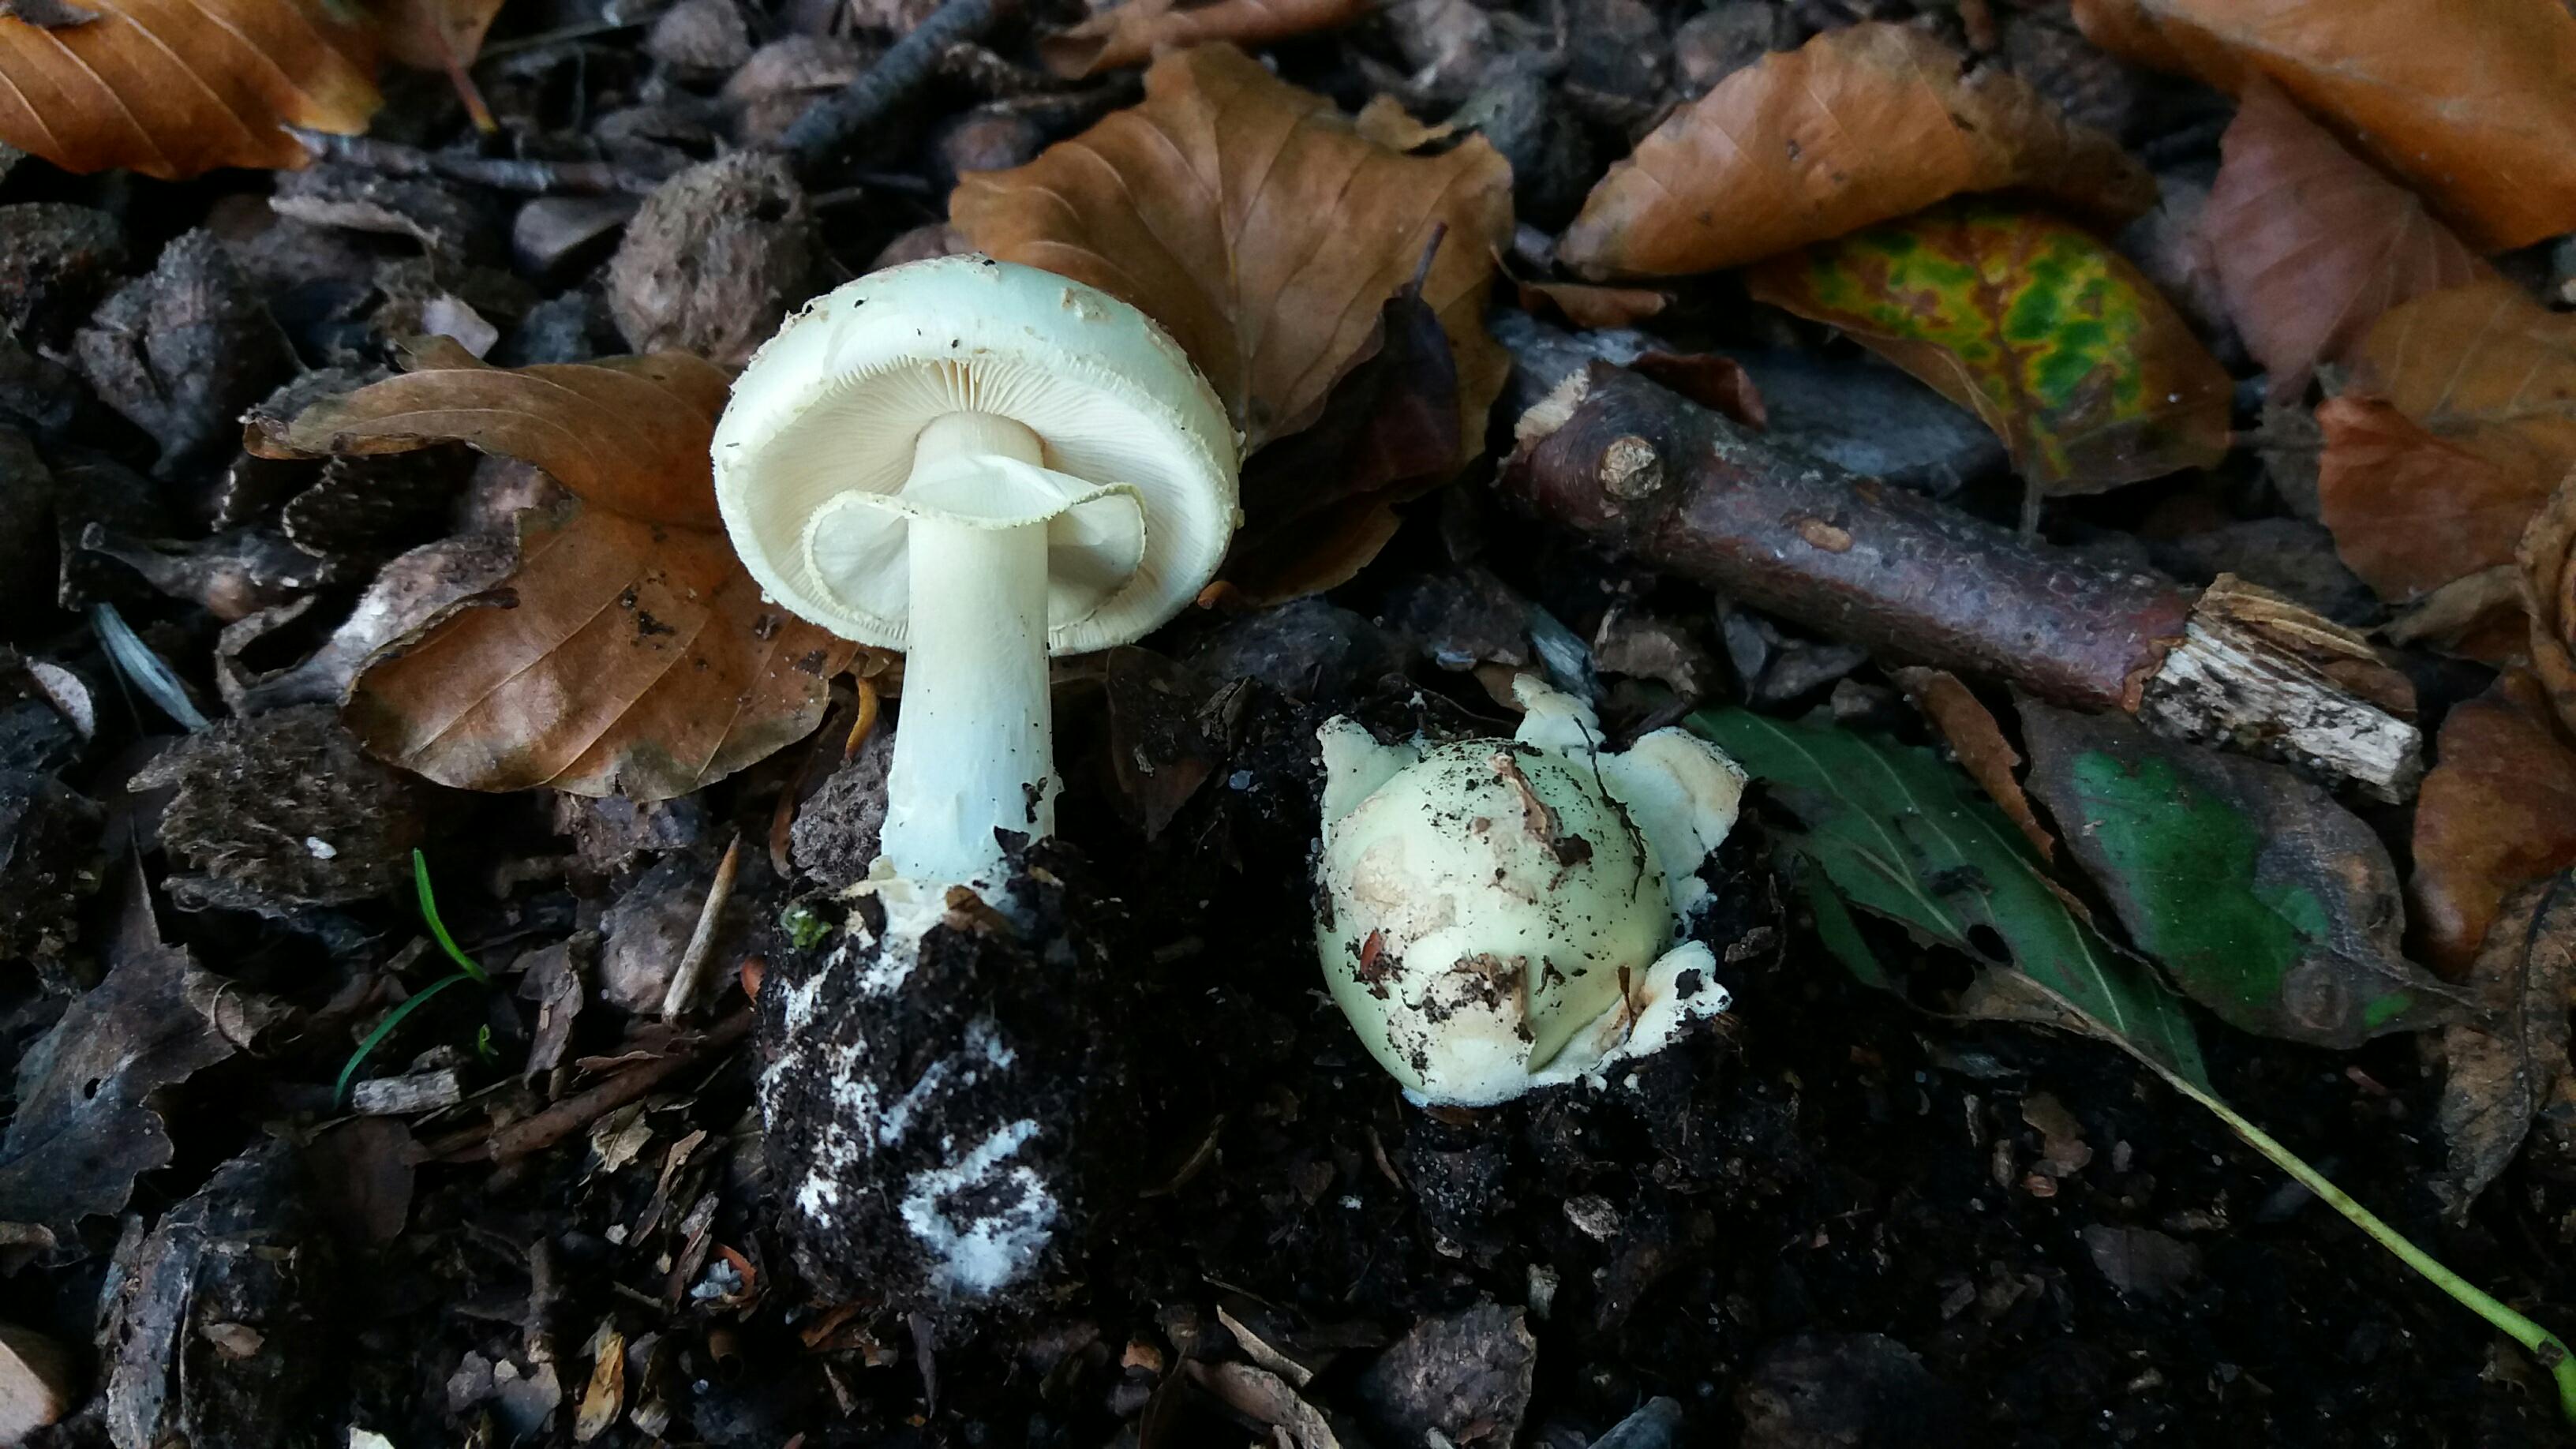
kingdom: Fungi
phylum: Basidiomycota
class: Agaricomycetes
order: Agaricales
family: Amanitaceae
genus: Amanita
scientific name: Amanita citrina
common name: kugleknoldet fluesvamp
